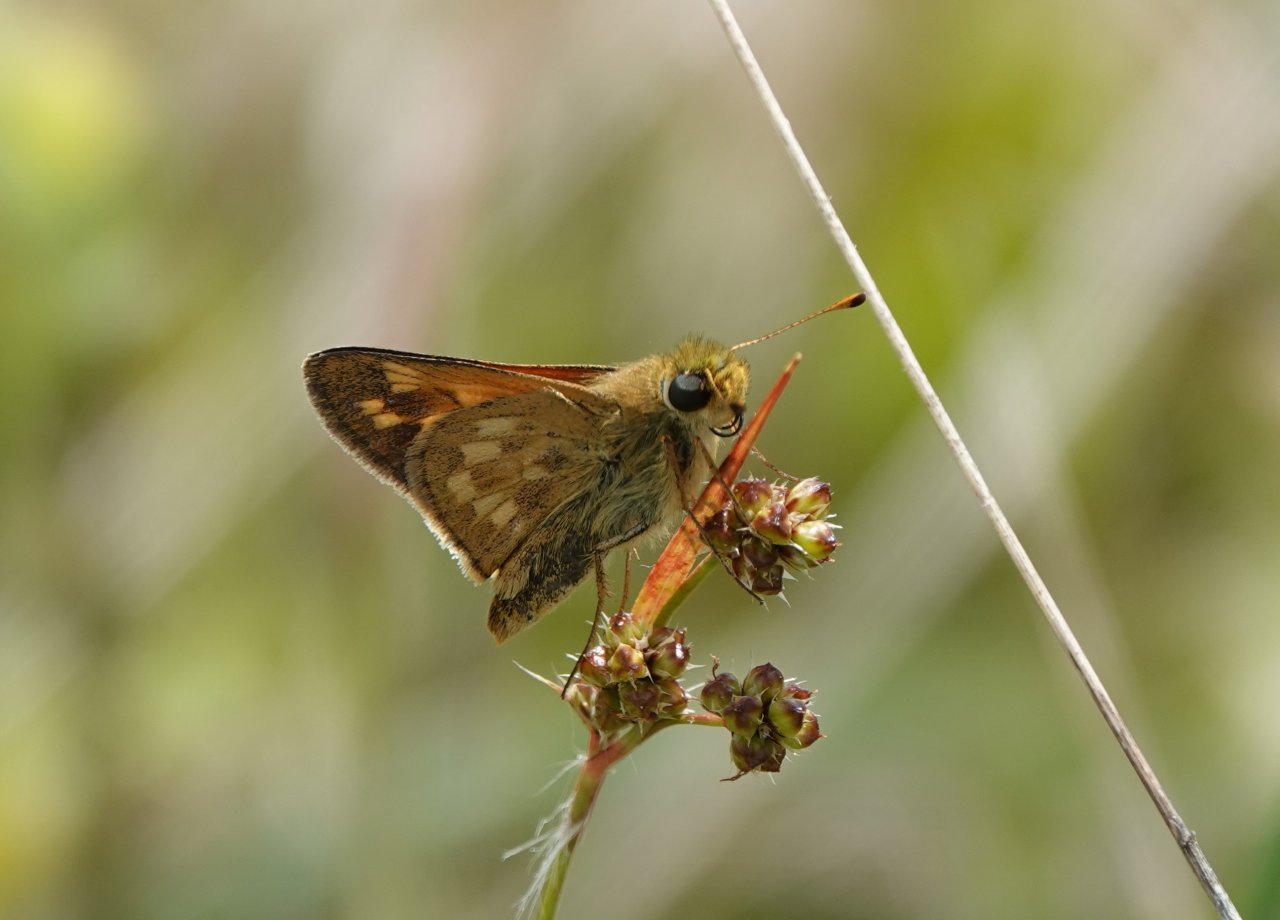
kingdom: Animalia
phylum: Arthropoda
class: Insecta
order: Lepidoptera
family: Hesperiidae
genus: Hesperia
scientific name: Hesperia sassacus
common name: Sassacus Skipper
